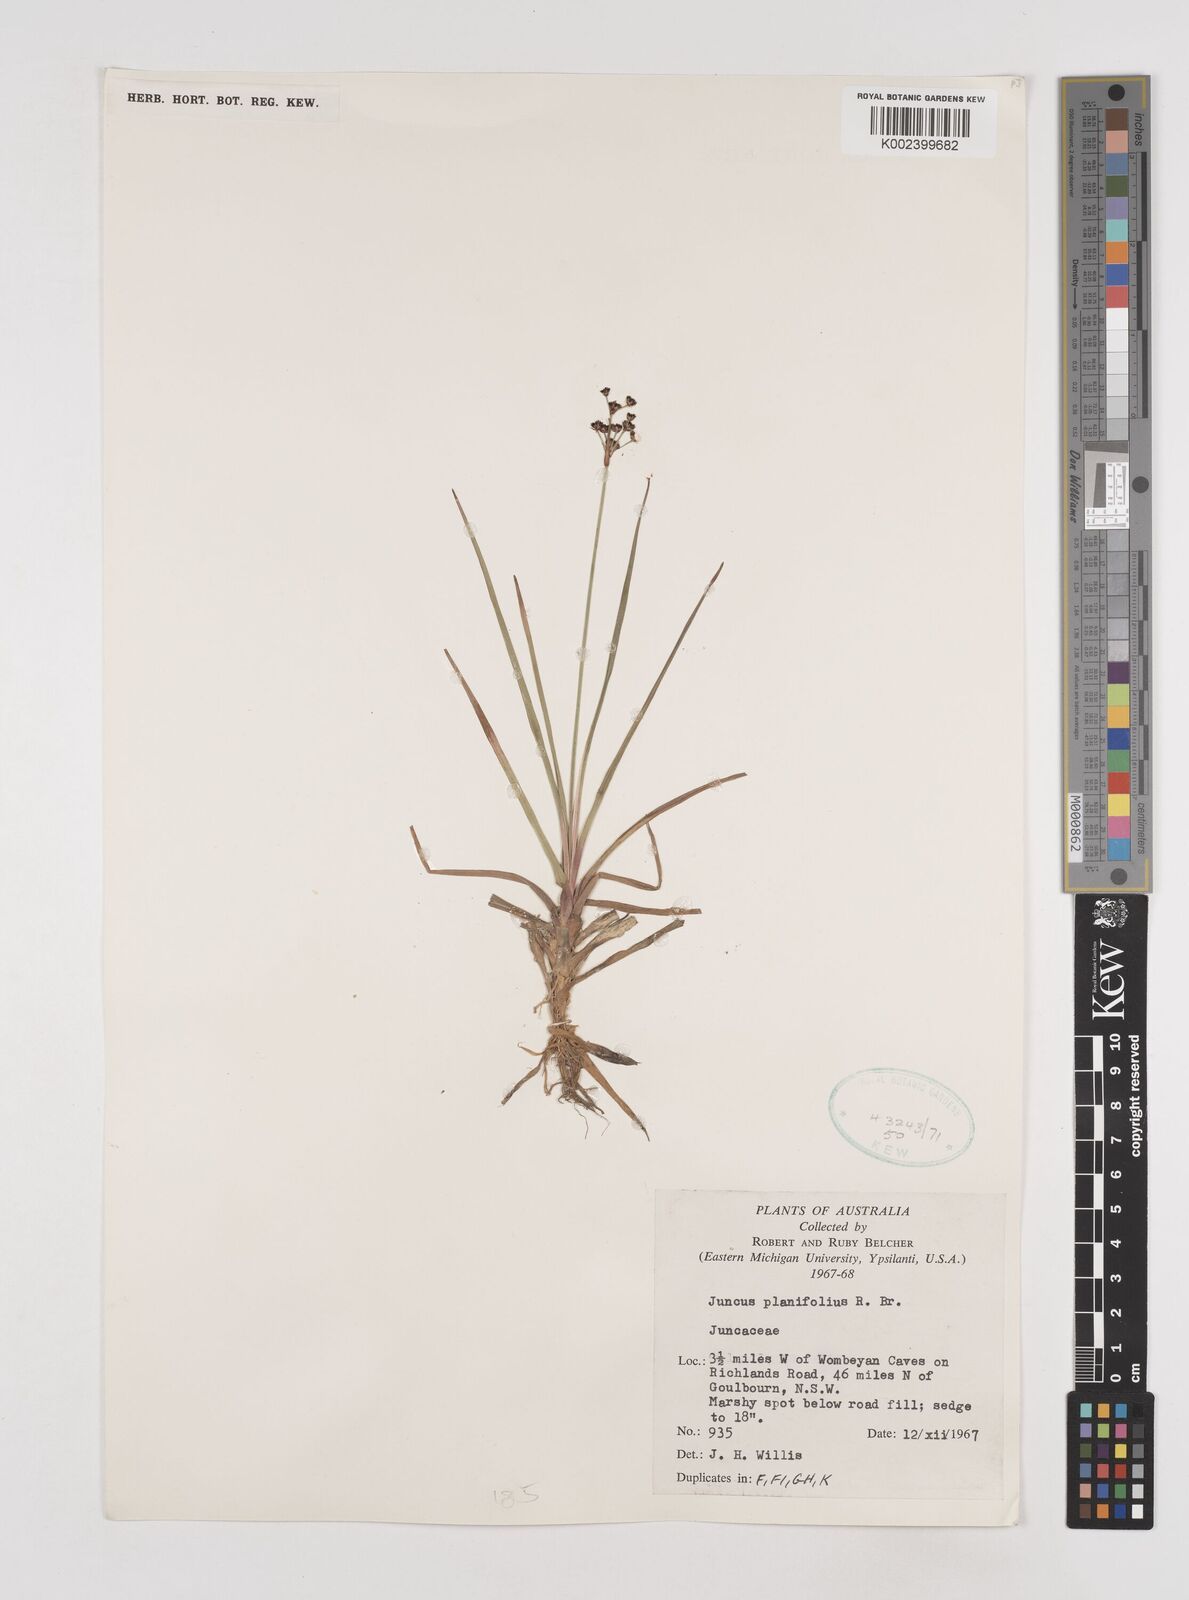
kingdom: Plantae
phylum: Tracheophyta
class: Liliopsida
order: Poales
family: Juncaceae
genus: Juncus
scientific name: Juncus planifolius
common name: Broadleaf rush
